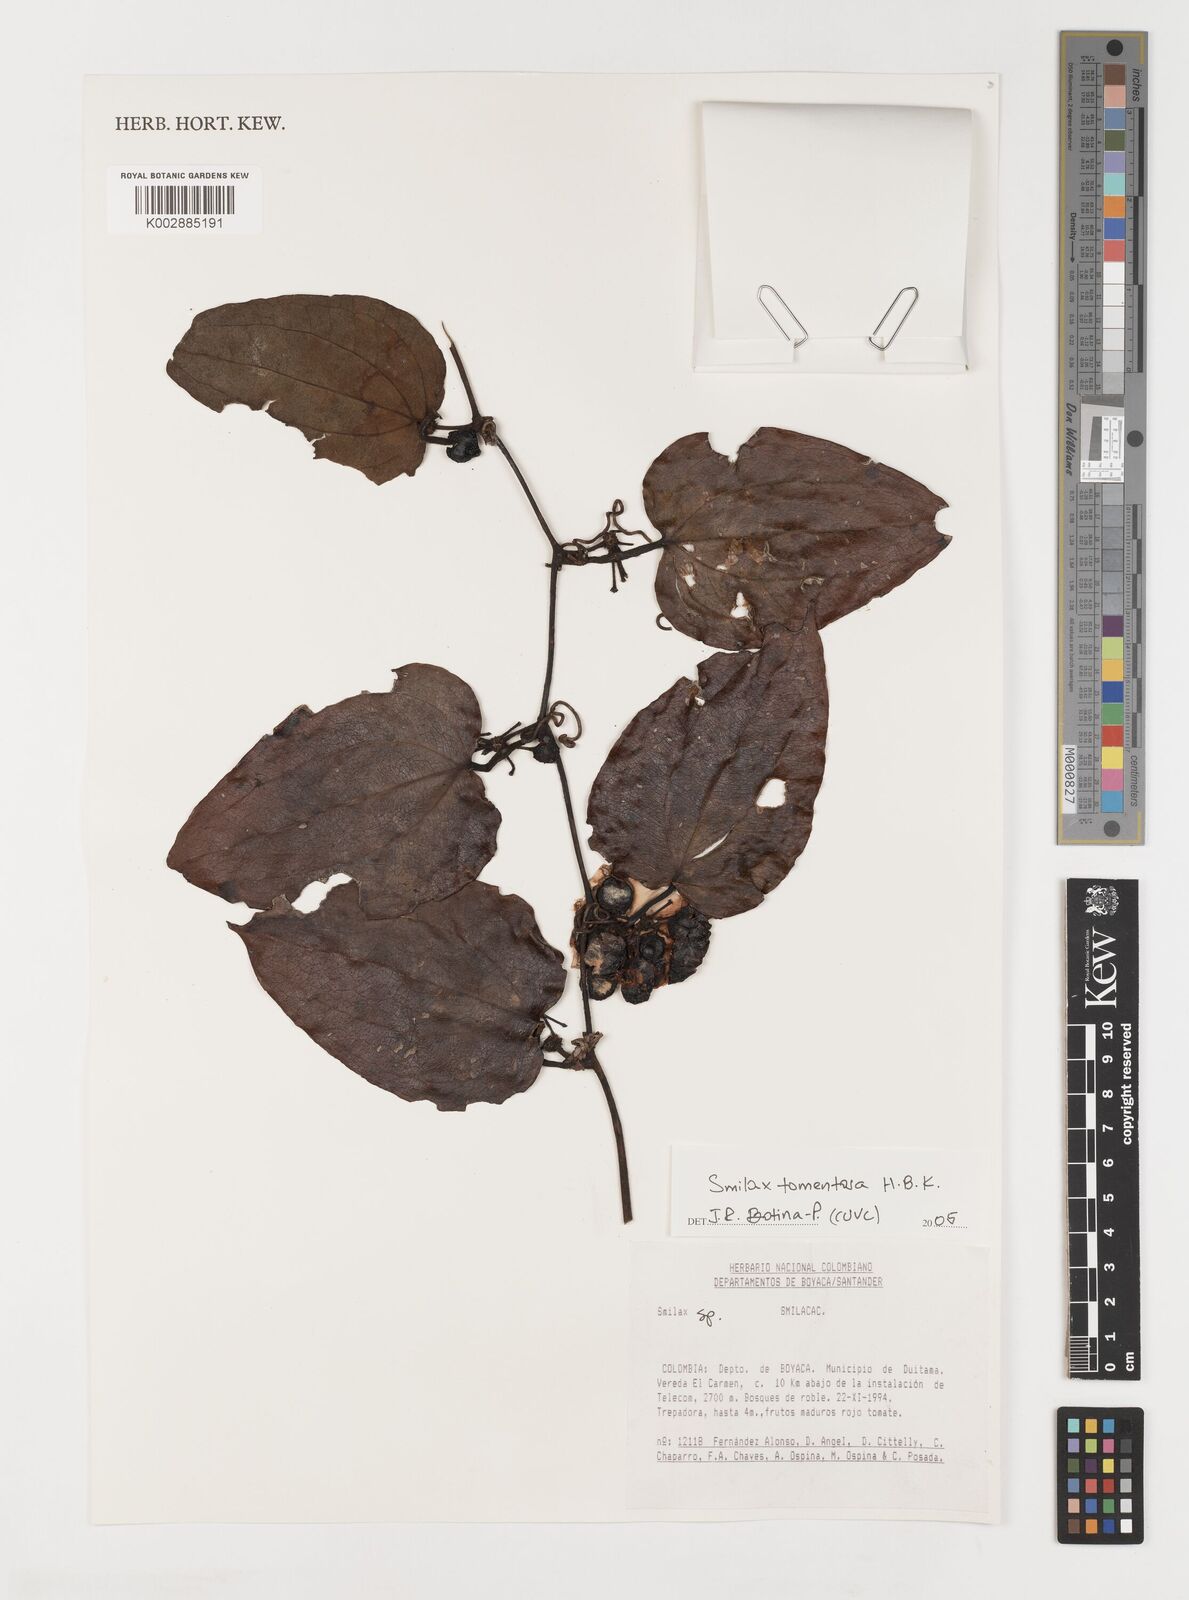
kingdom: Plantae
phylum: Tracheophyta
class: Liliopsida
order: Liliales
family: Smilacaceae
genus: Smilax
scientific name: Smilax tomentosa
